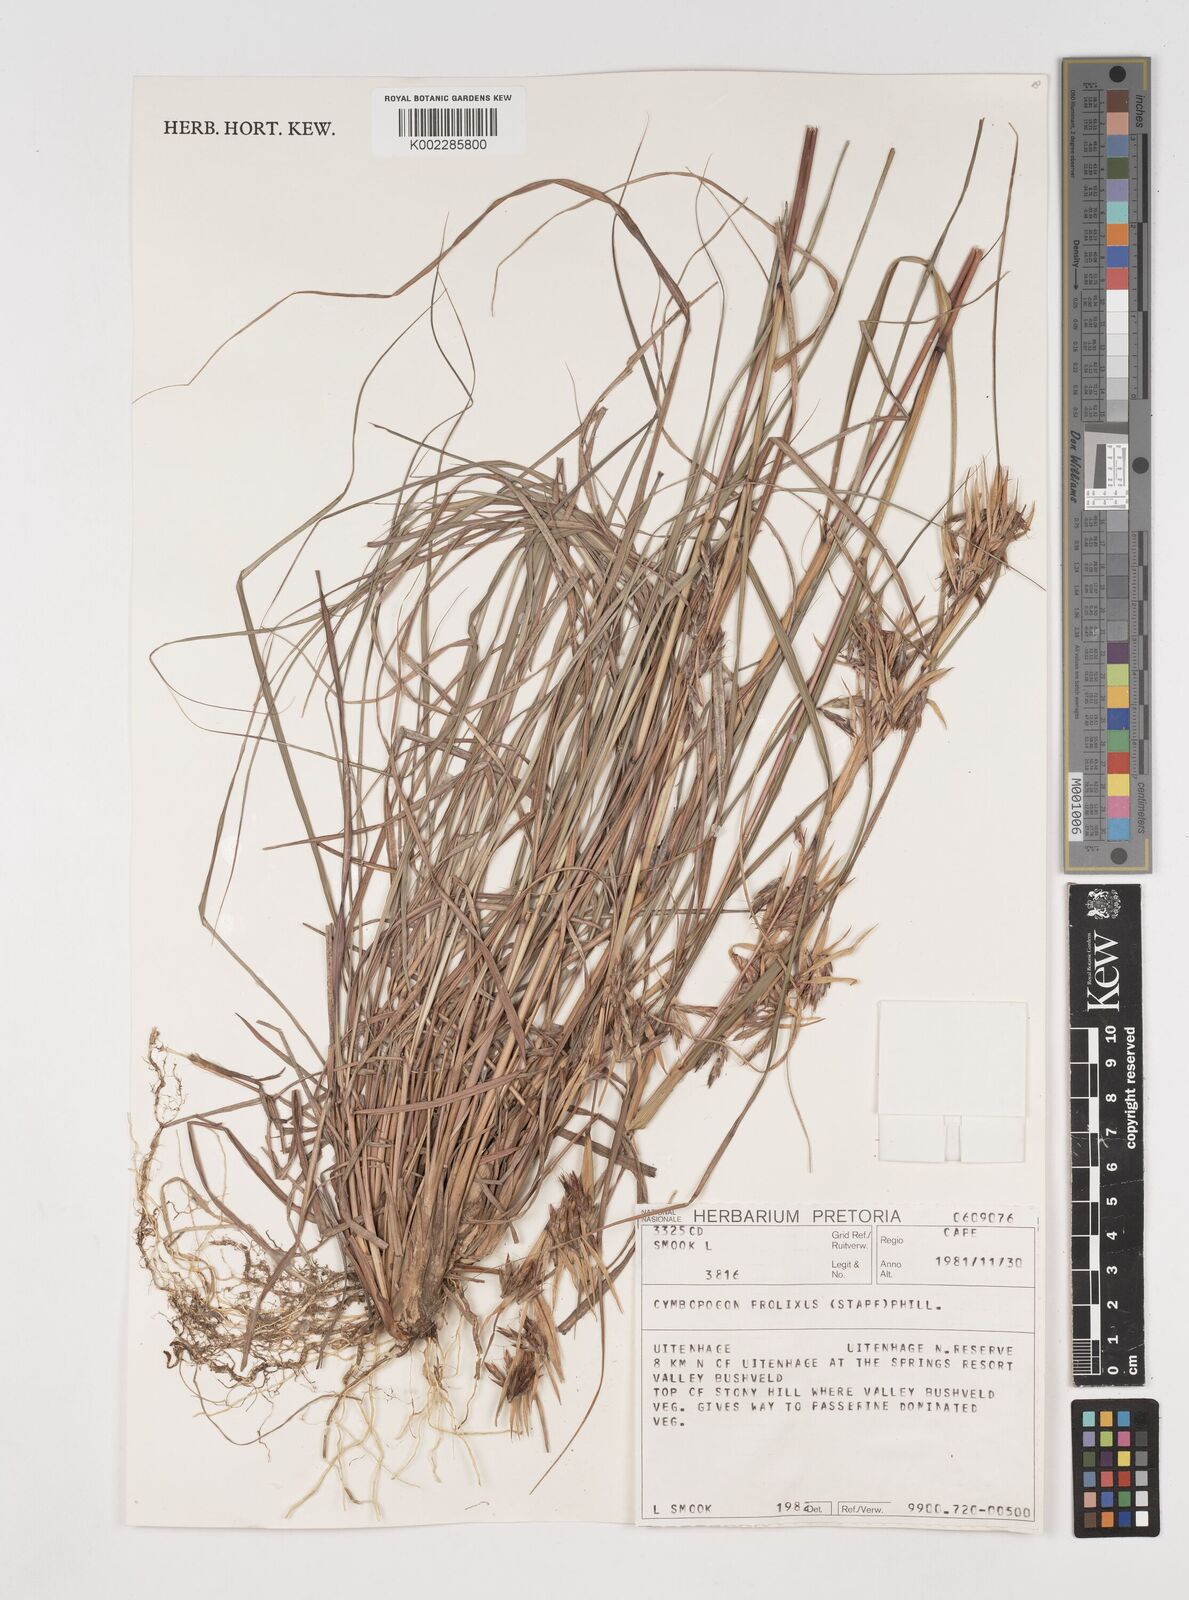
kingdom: Plantae
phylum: Tracheophyta
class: Liliopsida
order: Poales
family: Poaceae
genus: Cymbopogon
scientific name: Cymbopogon nardus
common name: Giant turpentine grass
